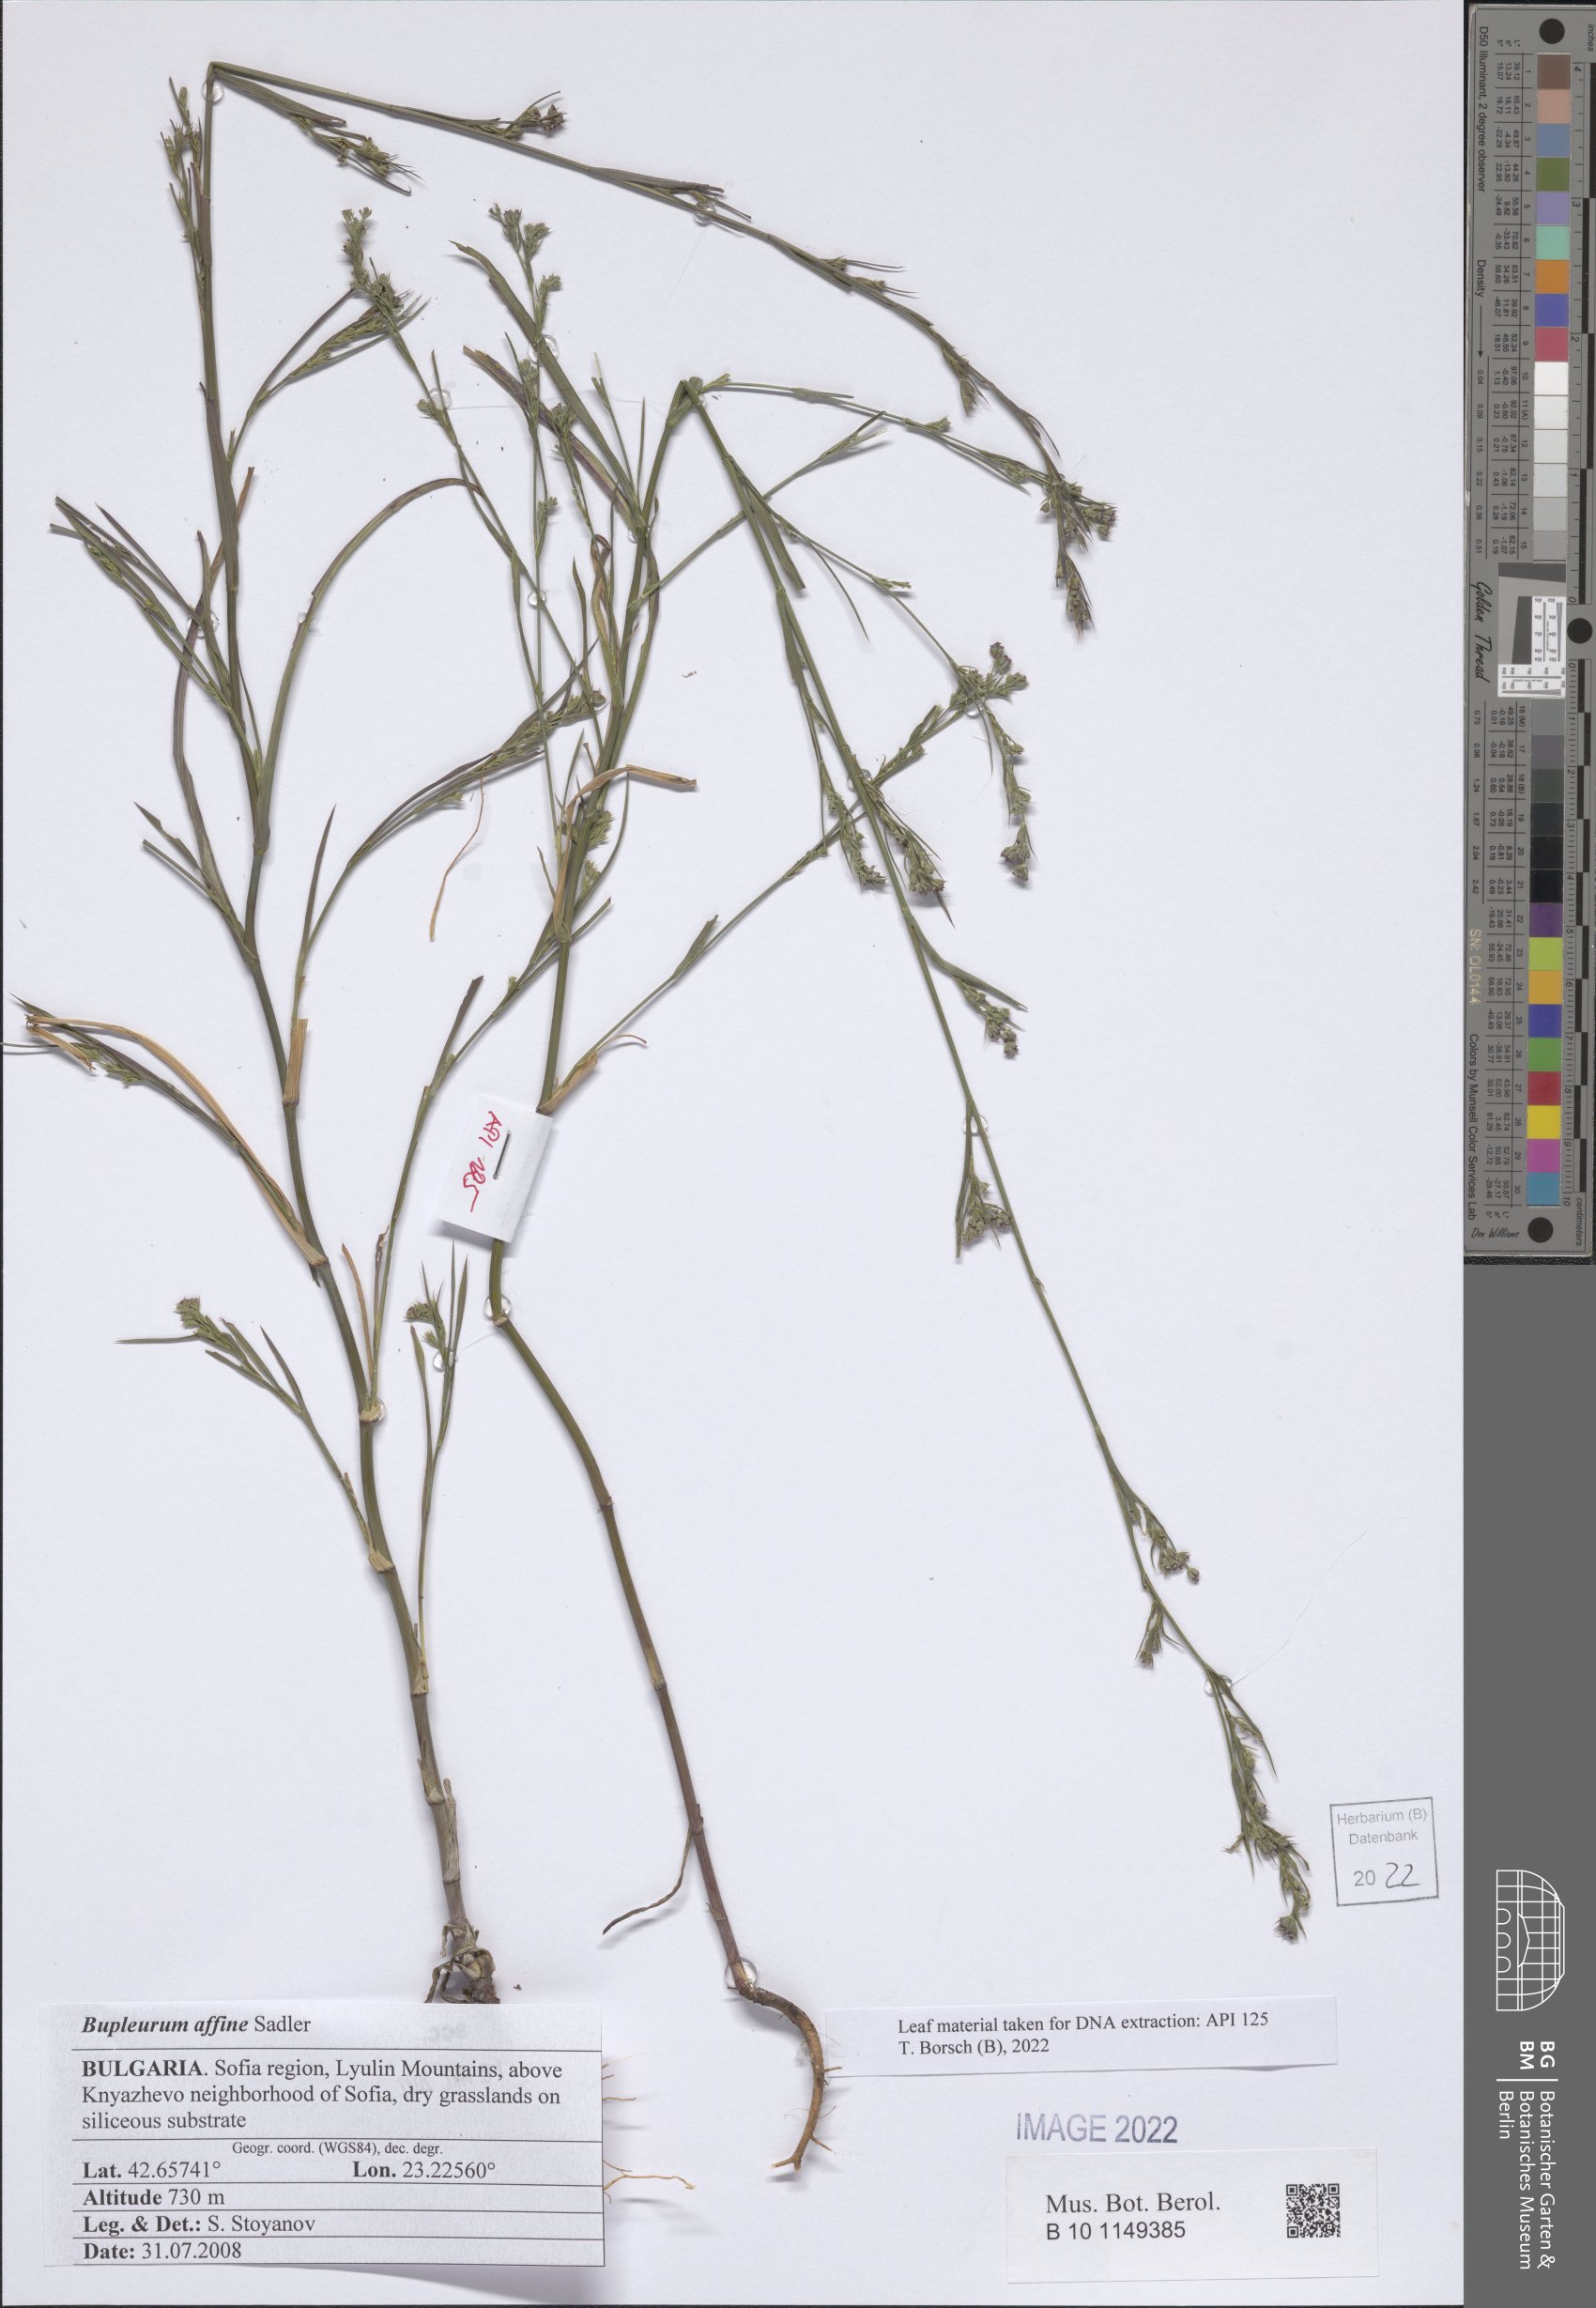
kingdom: Plantae
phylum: Tracheophyta
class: Magnoliopsida
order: Apiales
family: Apiaceae
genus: Bupleurum
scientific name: Bupleurum affine
